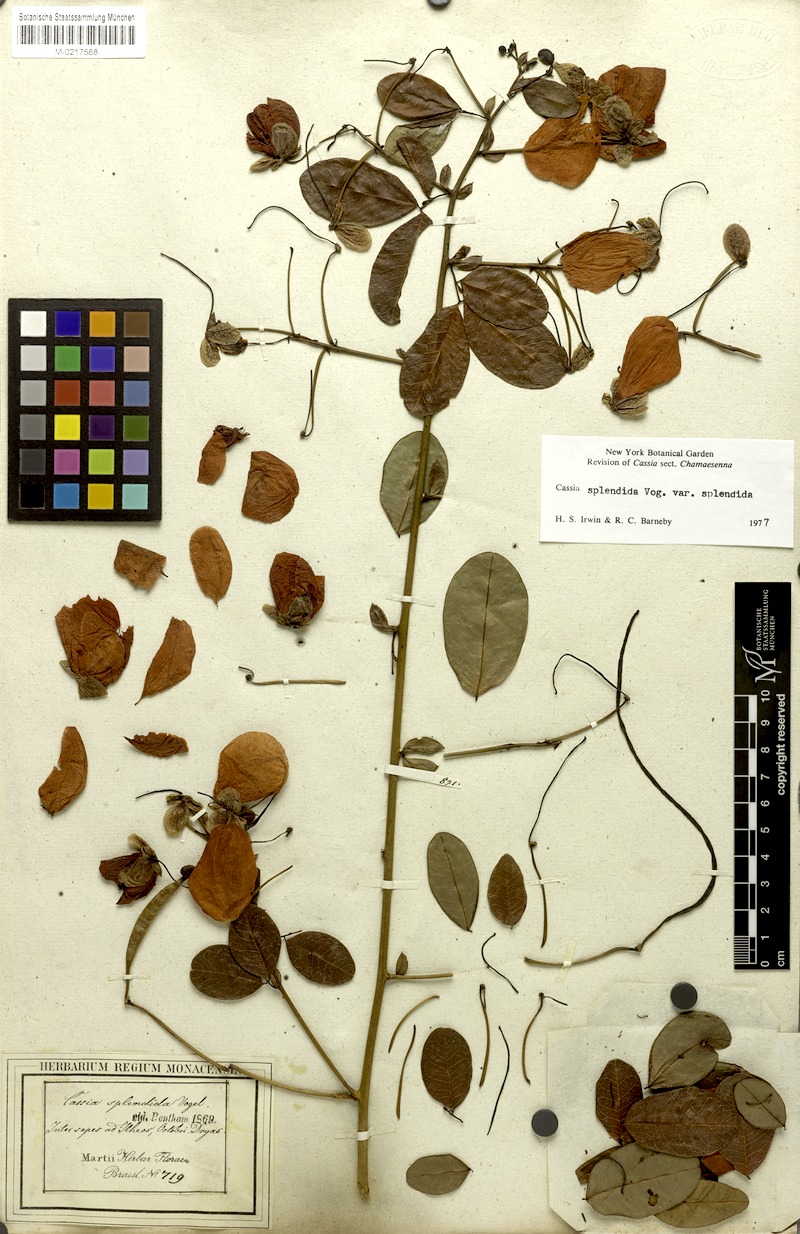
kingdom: Plantae
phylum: Tracheophyta
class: Magnoliopsida
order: Fabales
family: Fabaceae
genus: Senna
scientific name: Senna splendida
